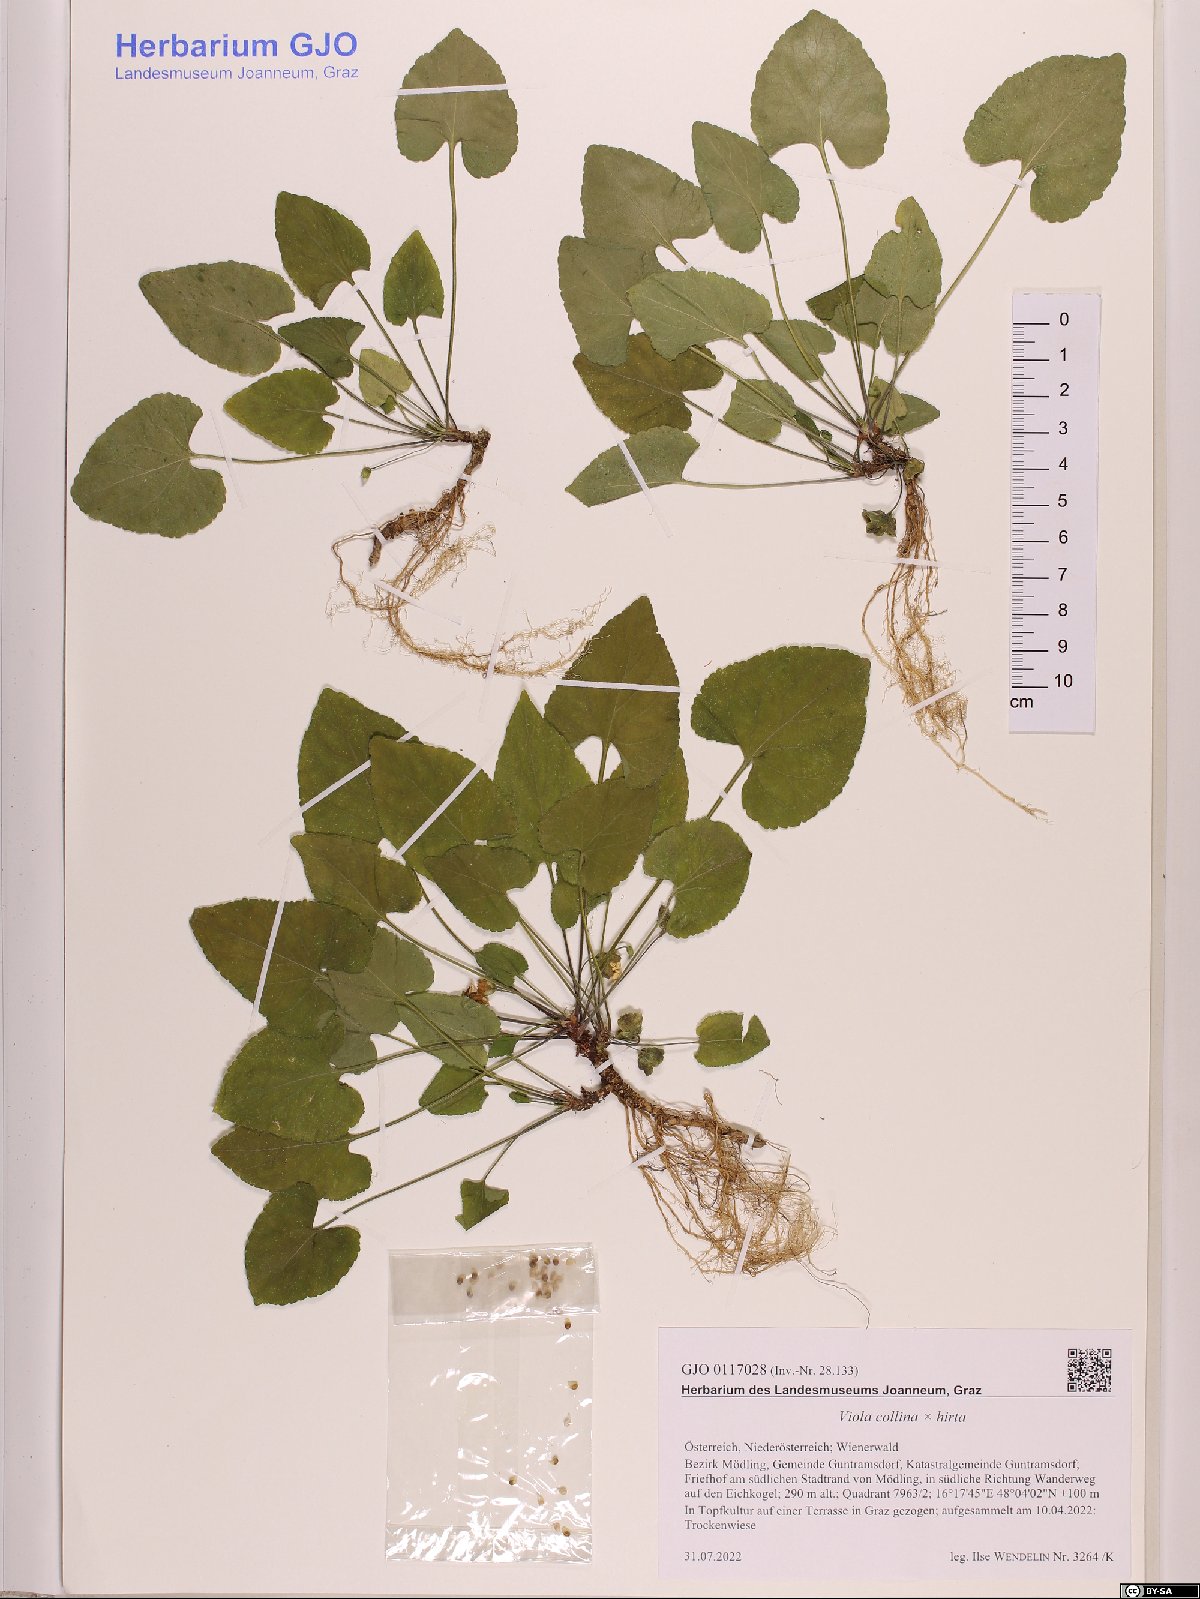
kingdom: Plantae
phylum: Tracheophyta
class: Magnoliopsida
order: Malpighiales
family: Violaceae
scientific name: Violaceae
